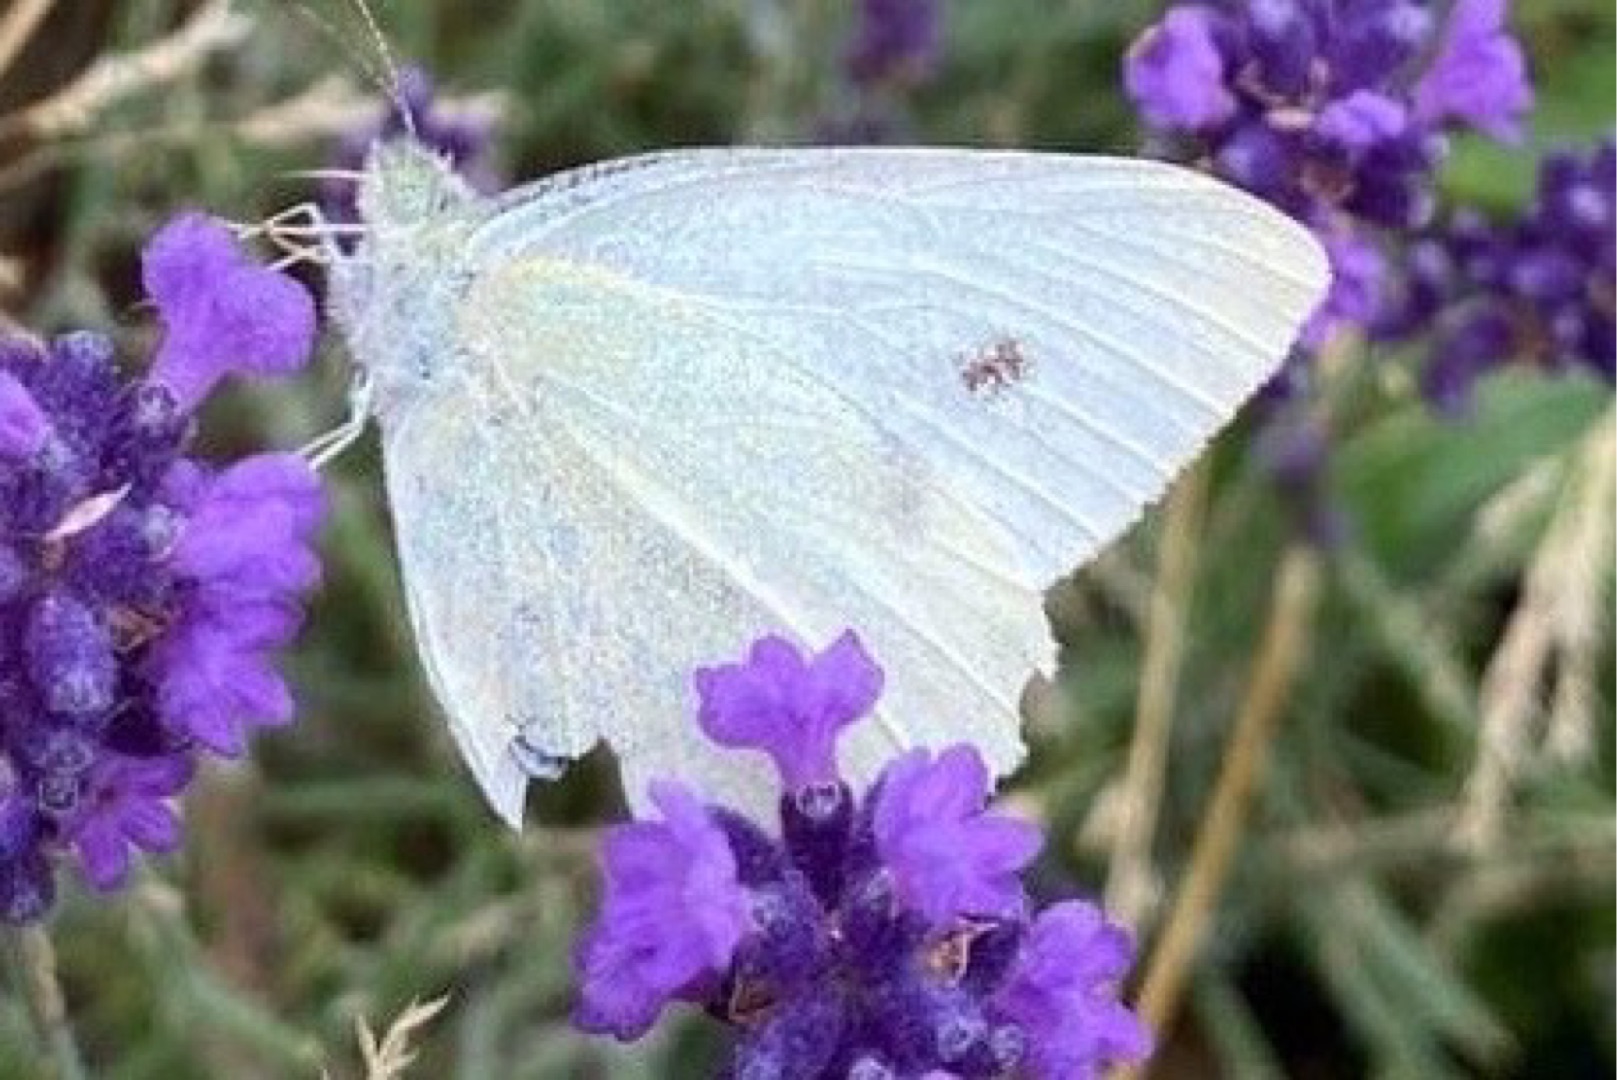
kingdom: Animalia
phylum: Arthropoda
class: Insecta
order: Lepidoptera
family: Pieridae
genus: Pieris
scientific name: Pieris rapae
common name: Lille kålsommerfugl
